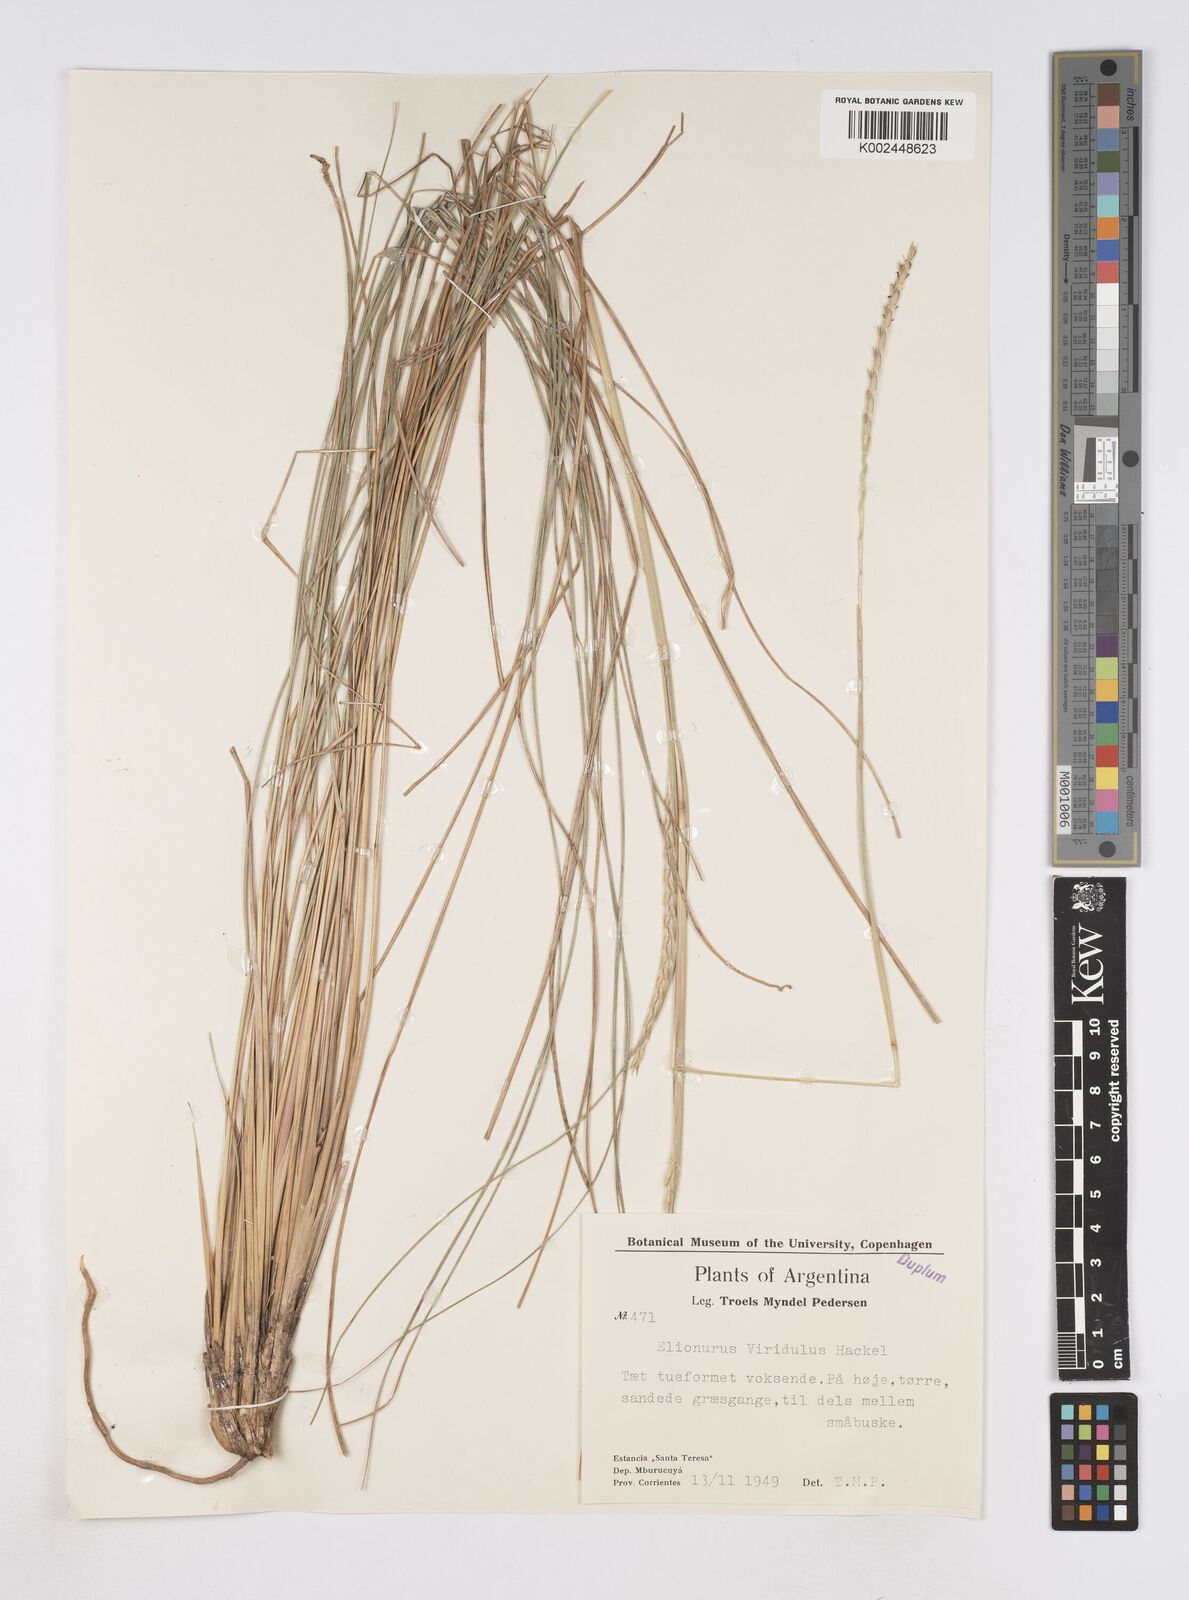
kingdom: Plantae
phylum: Tracheophyta
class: Liliopsida
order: Poales
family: Poaceae
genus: Elionurus
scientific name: Elionurus muticus
